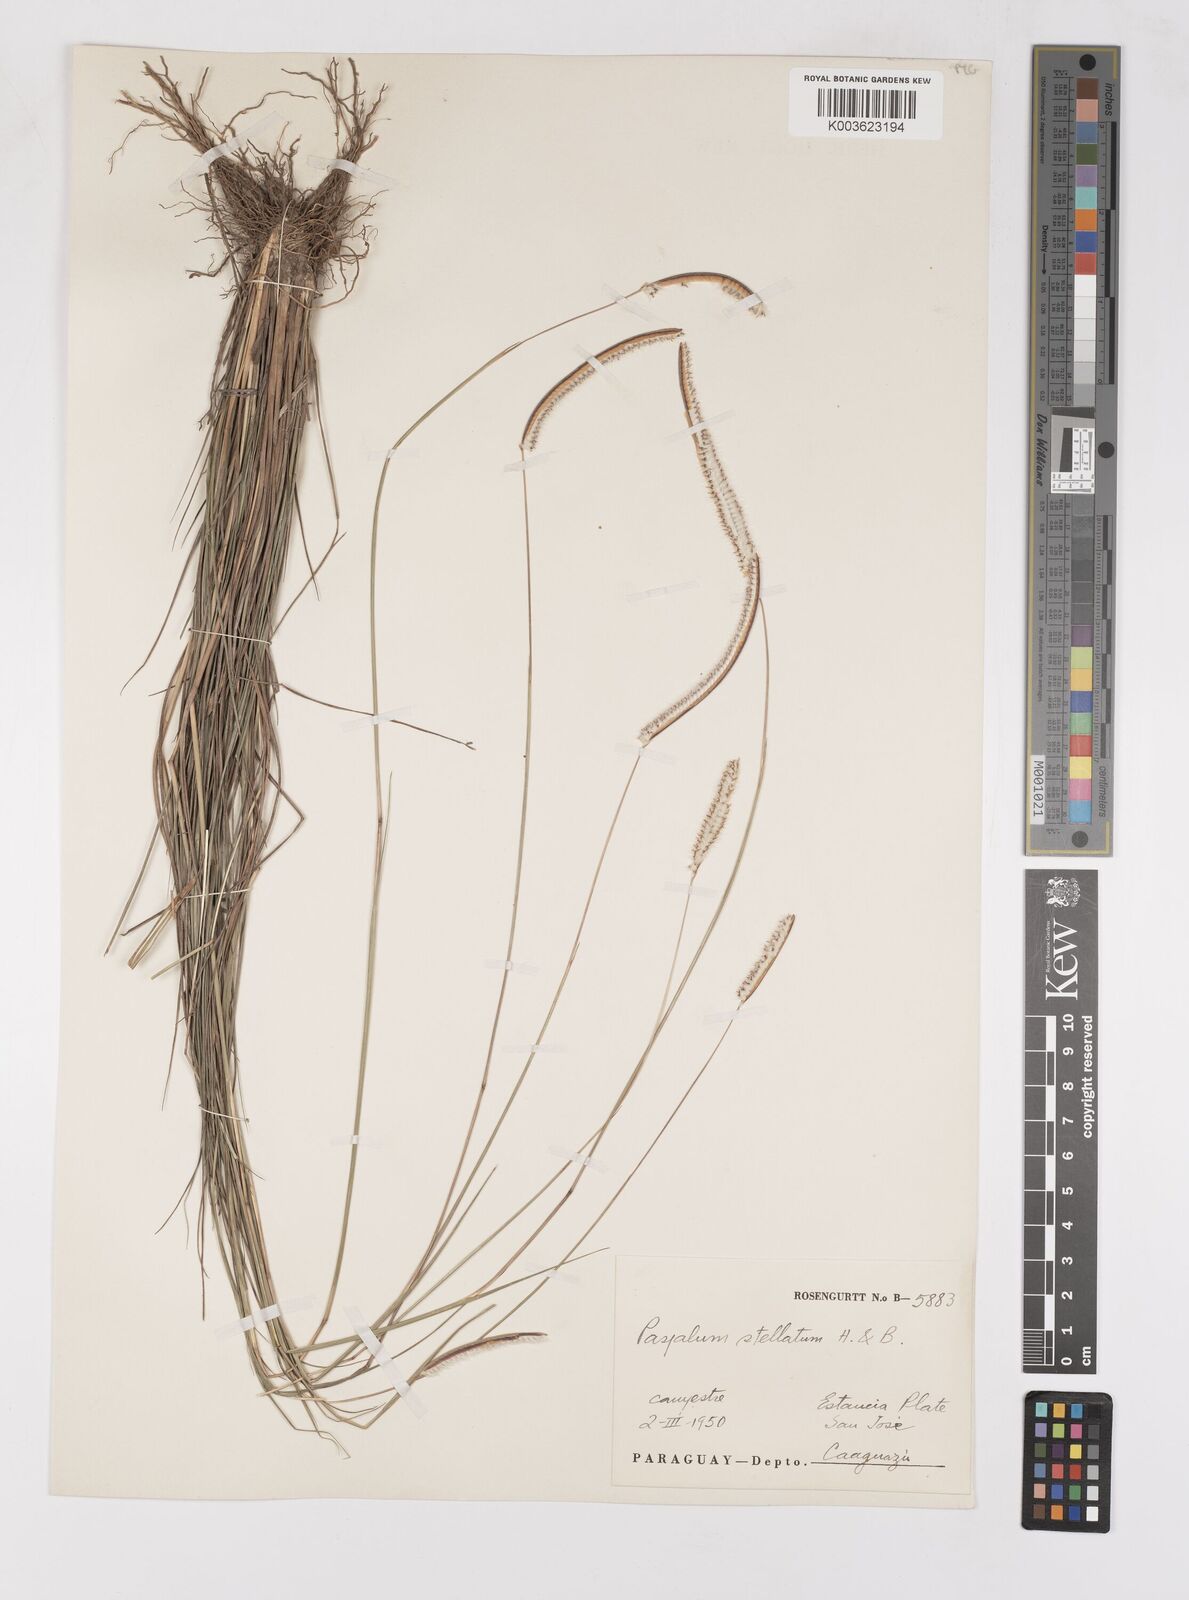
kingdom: Plantae
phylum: Tracheophyta
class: Liliopsida
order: Poales
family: Poaceae
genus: Paspalum
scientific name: Paspalum stellatum
